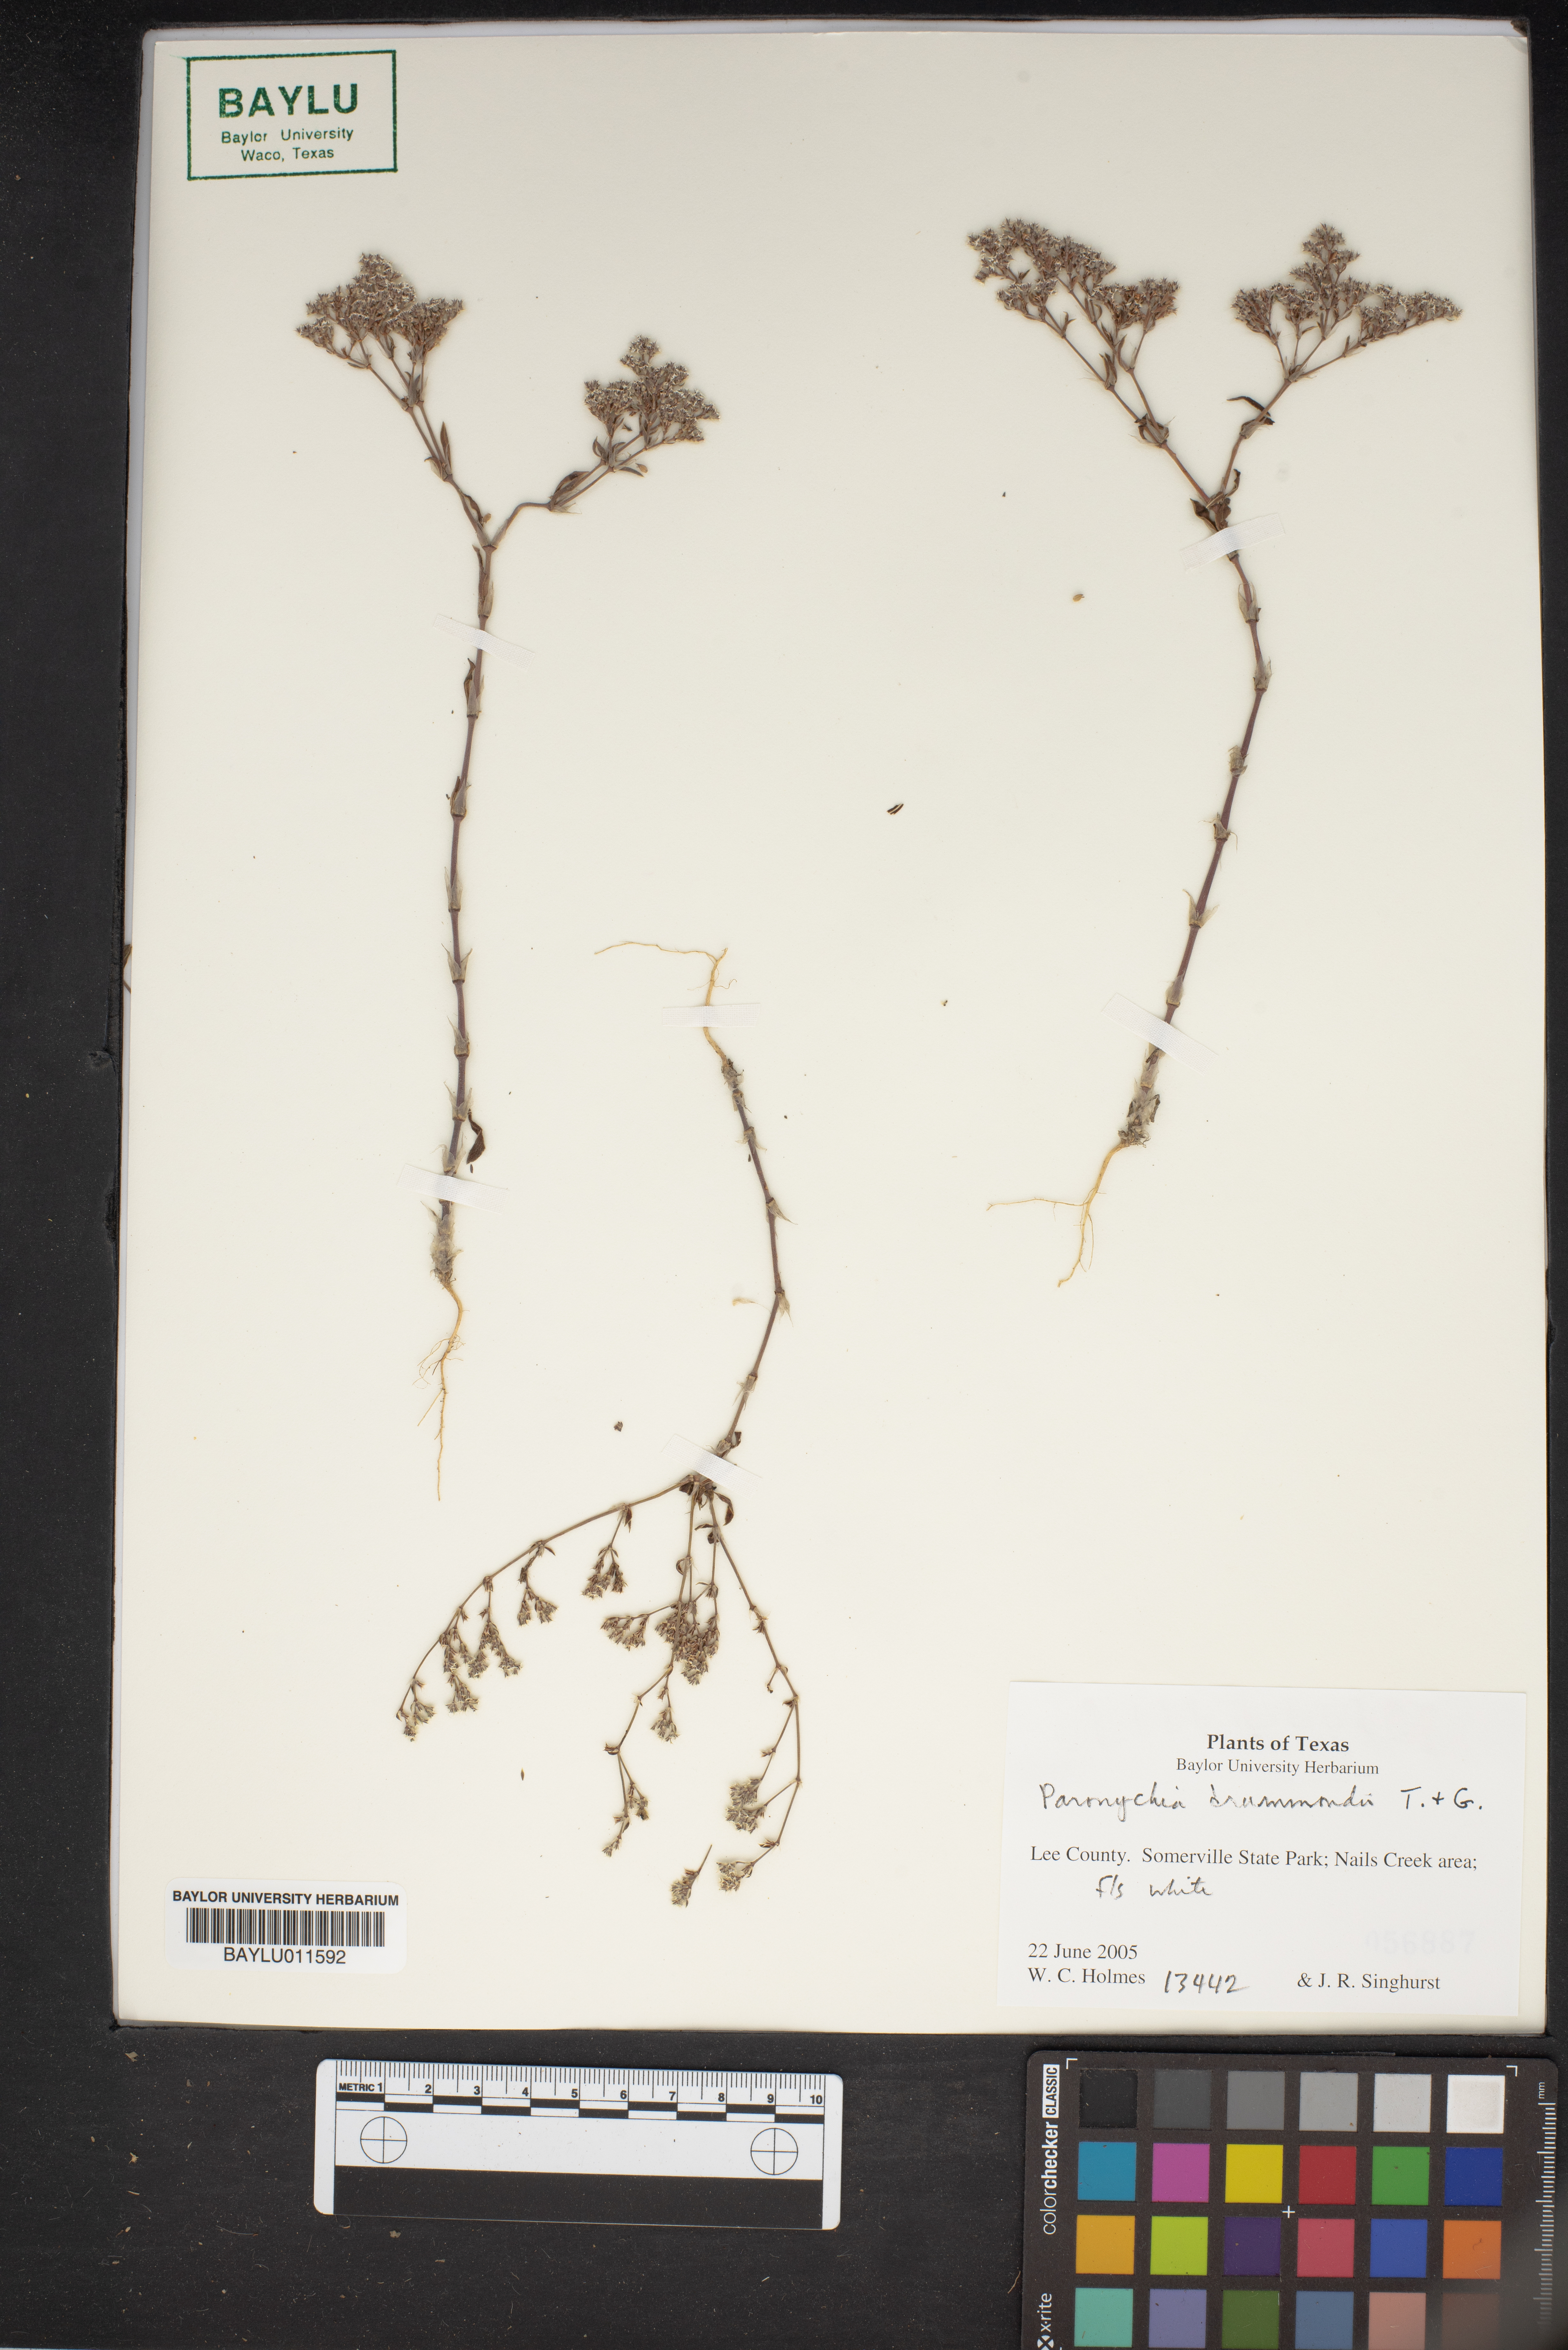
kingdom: Plantae
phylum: Tracheophyta
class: Magnoliopsida
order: Caryophyllales
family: Caryophyllaceae
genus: Paronychia
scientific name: Paronychia drummondii
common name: Drummond's nailwort
